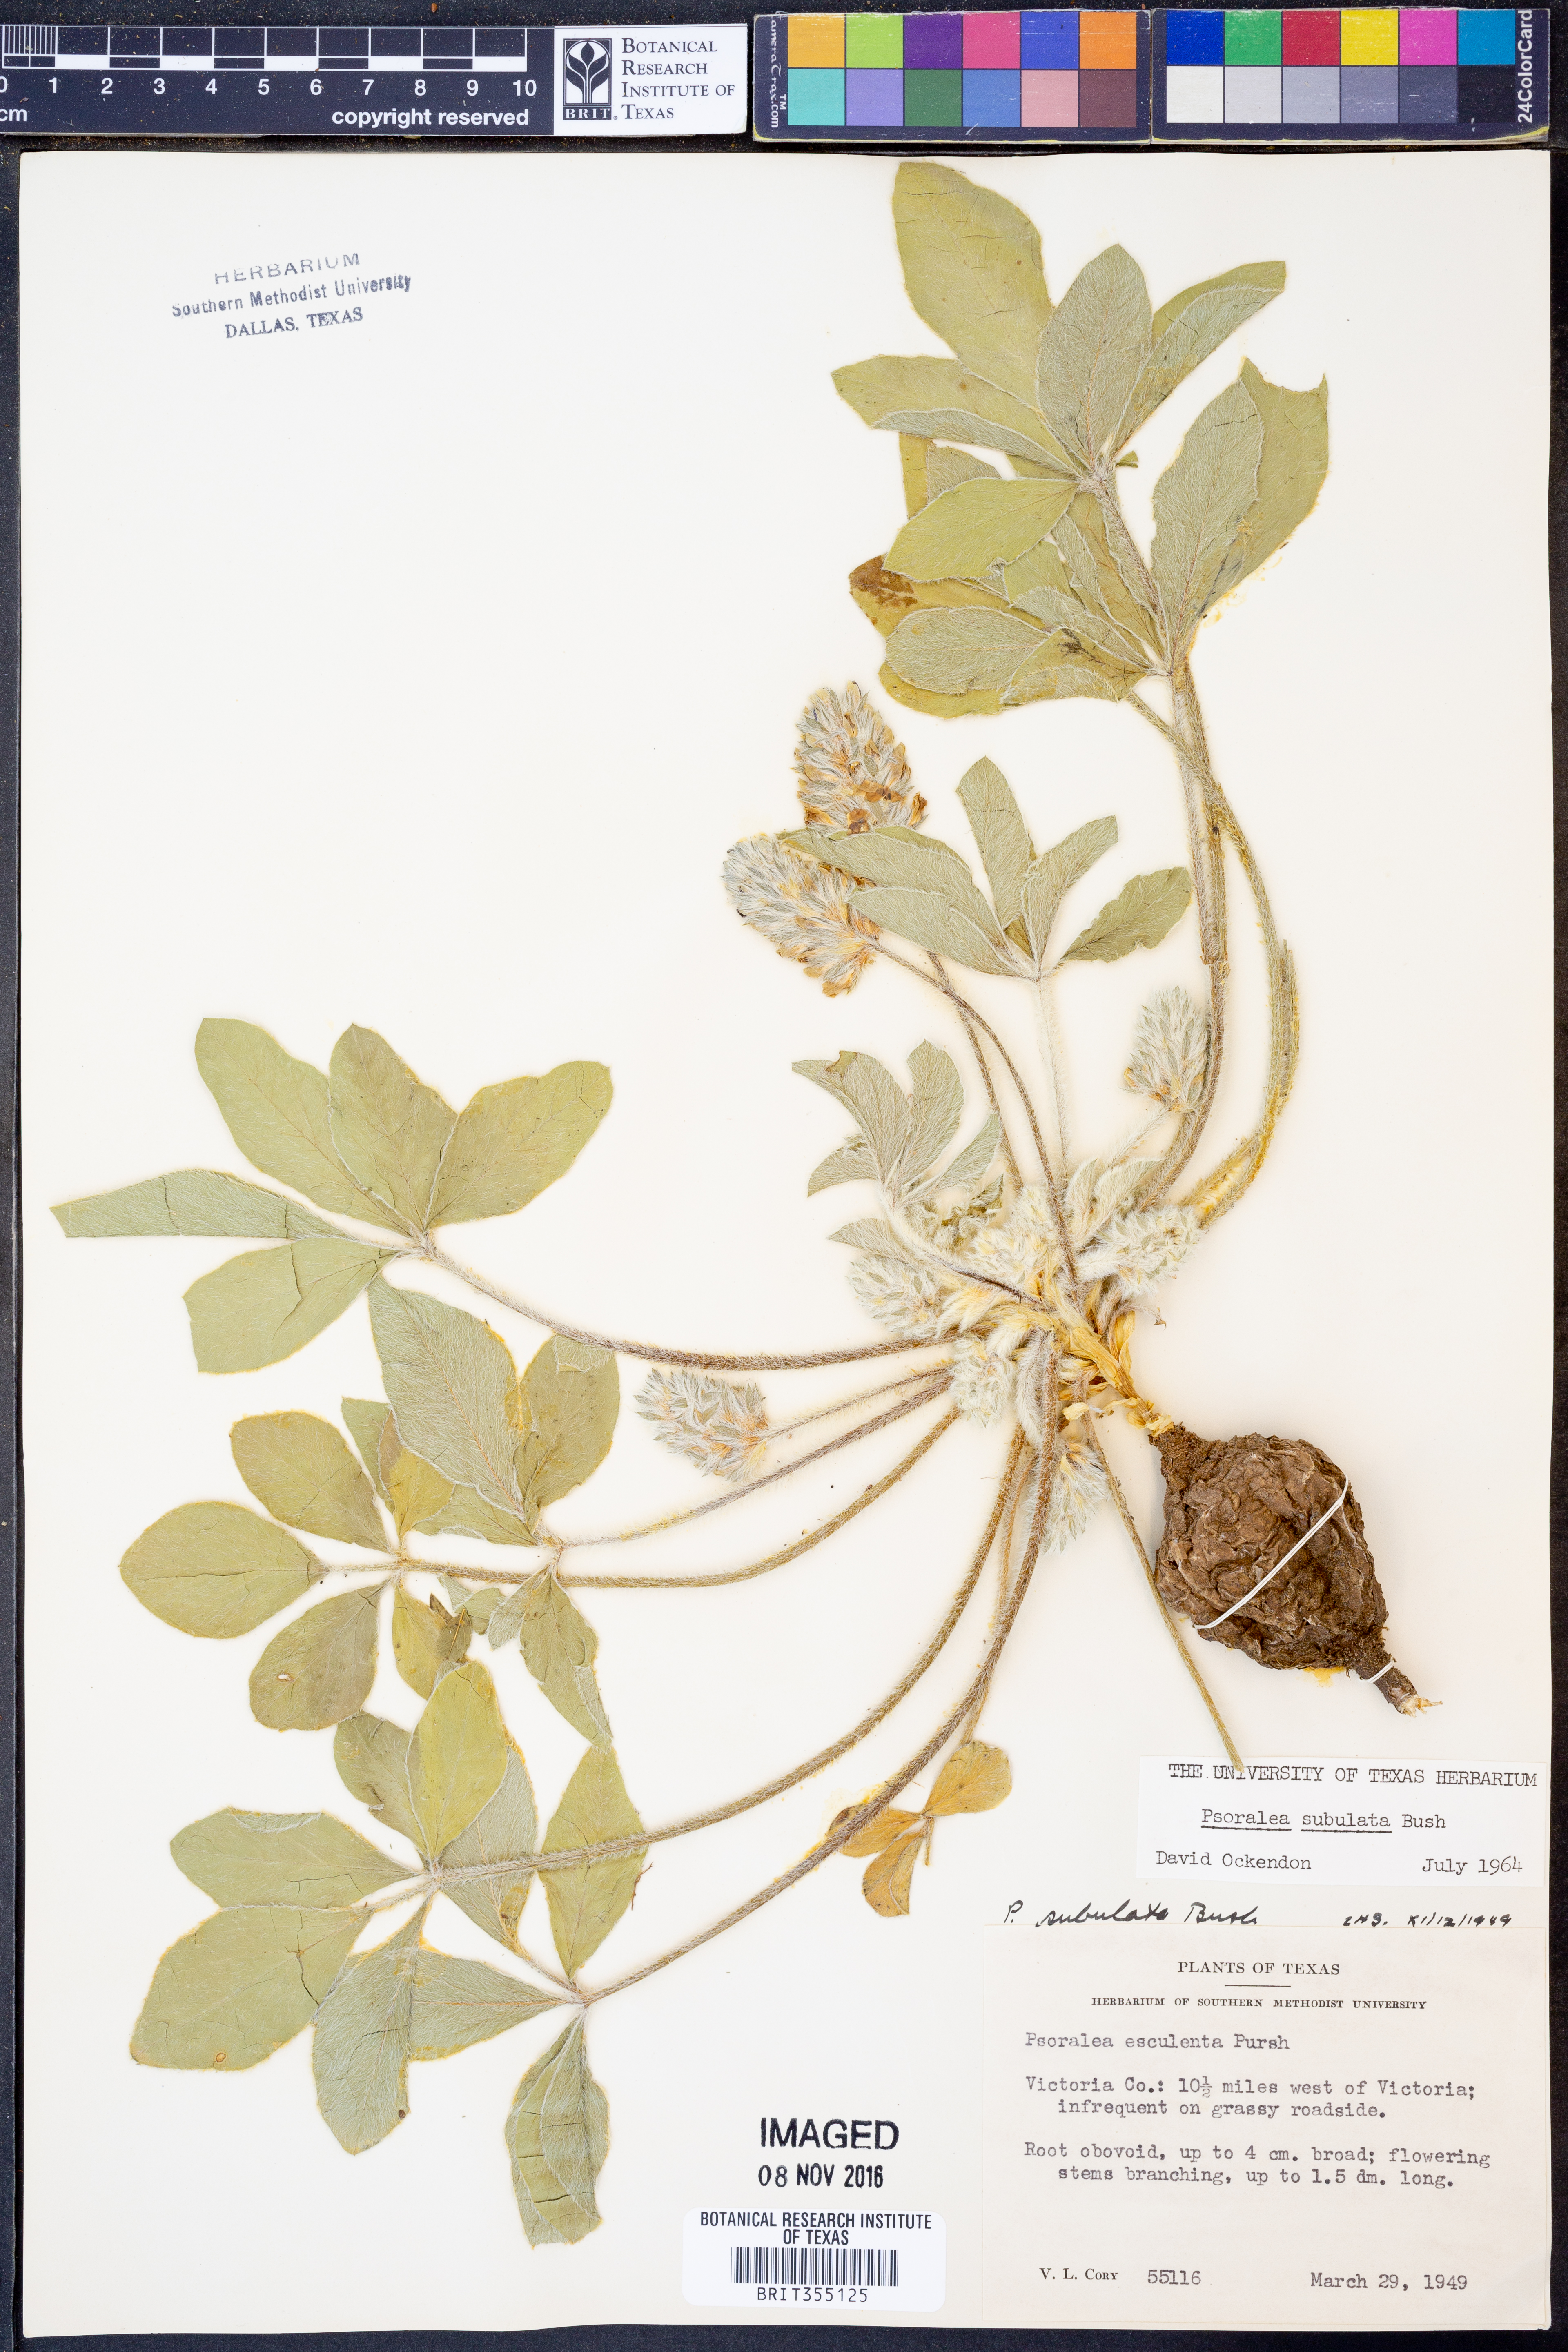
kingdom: Plantae
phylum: Tracheophyta
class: Magnoliopsida
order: Fabales
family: Fabaceae
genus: Pediomelum
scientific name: Pediomelum hypogaeum
